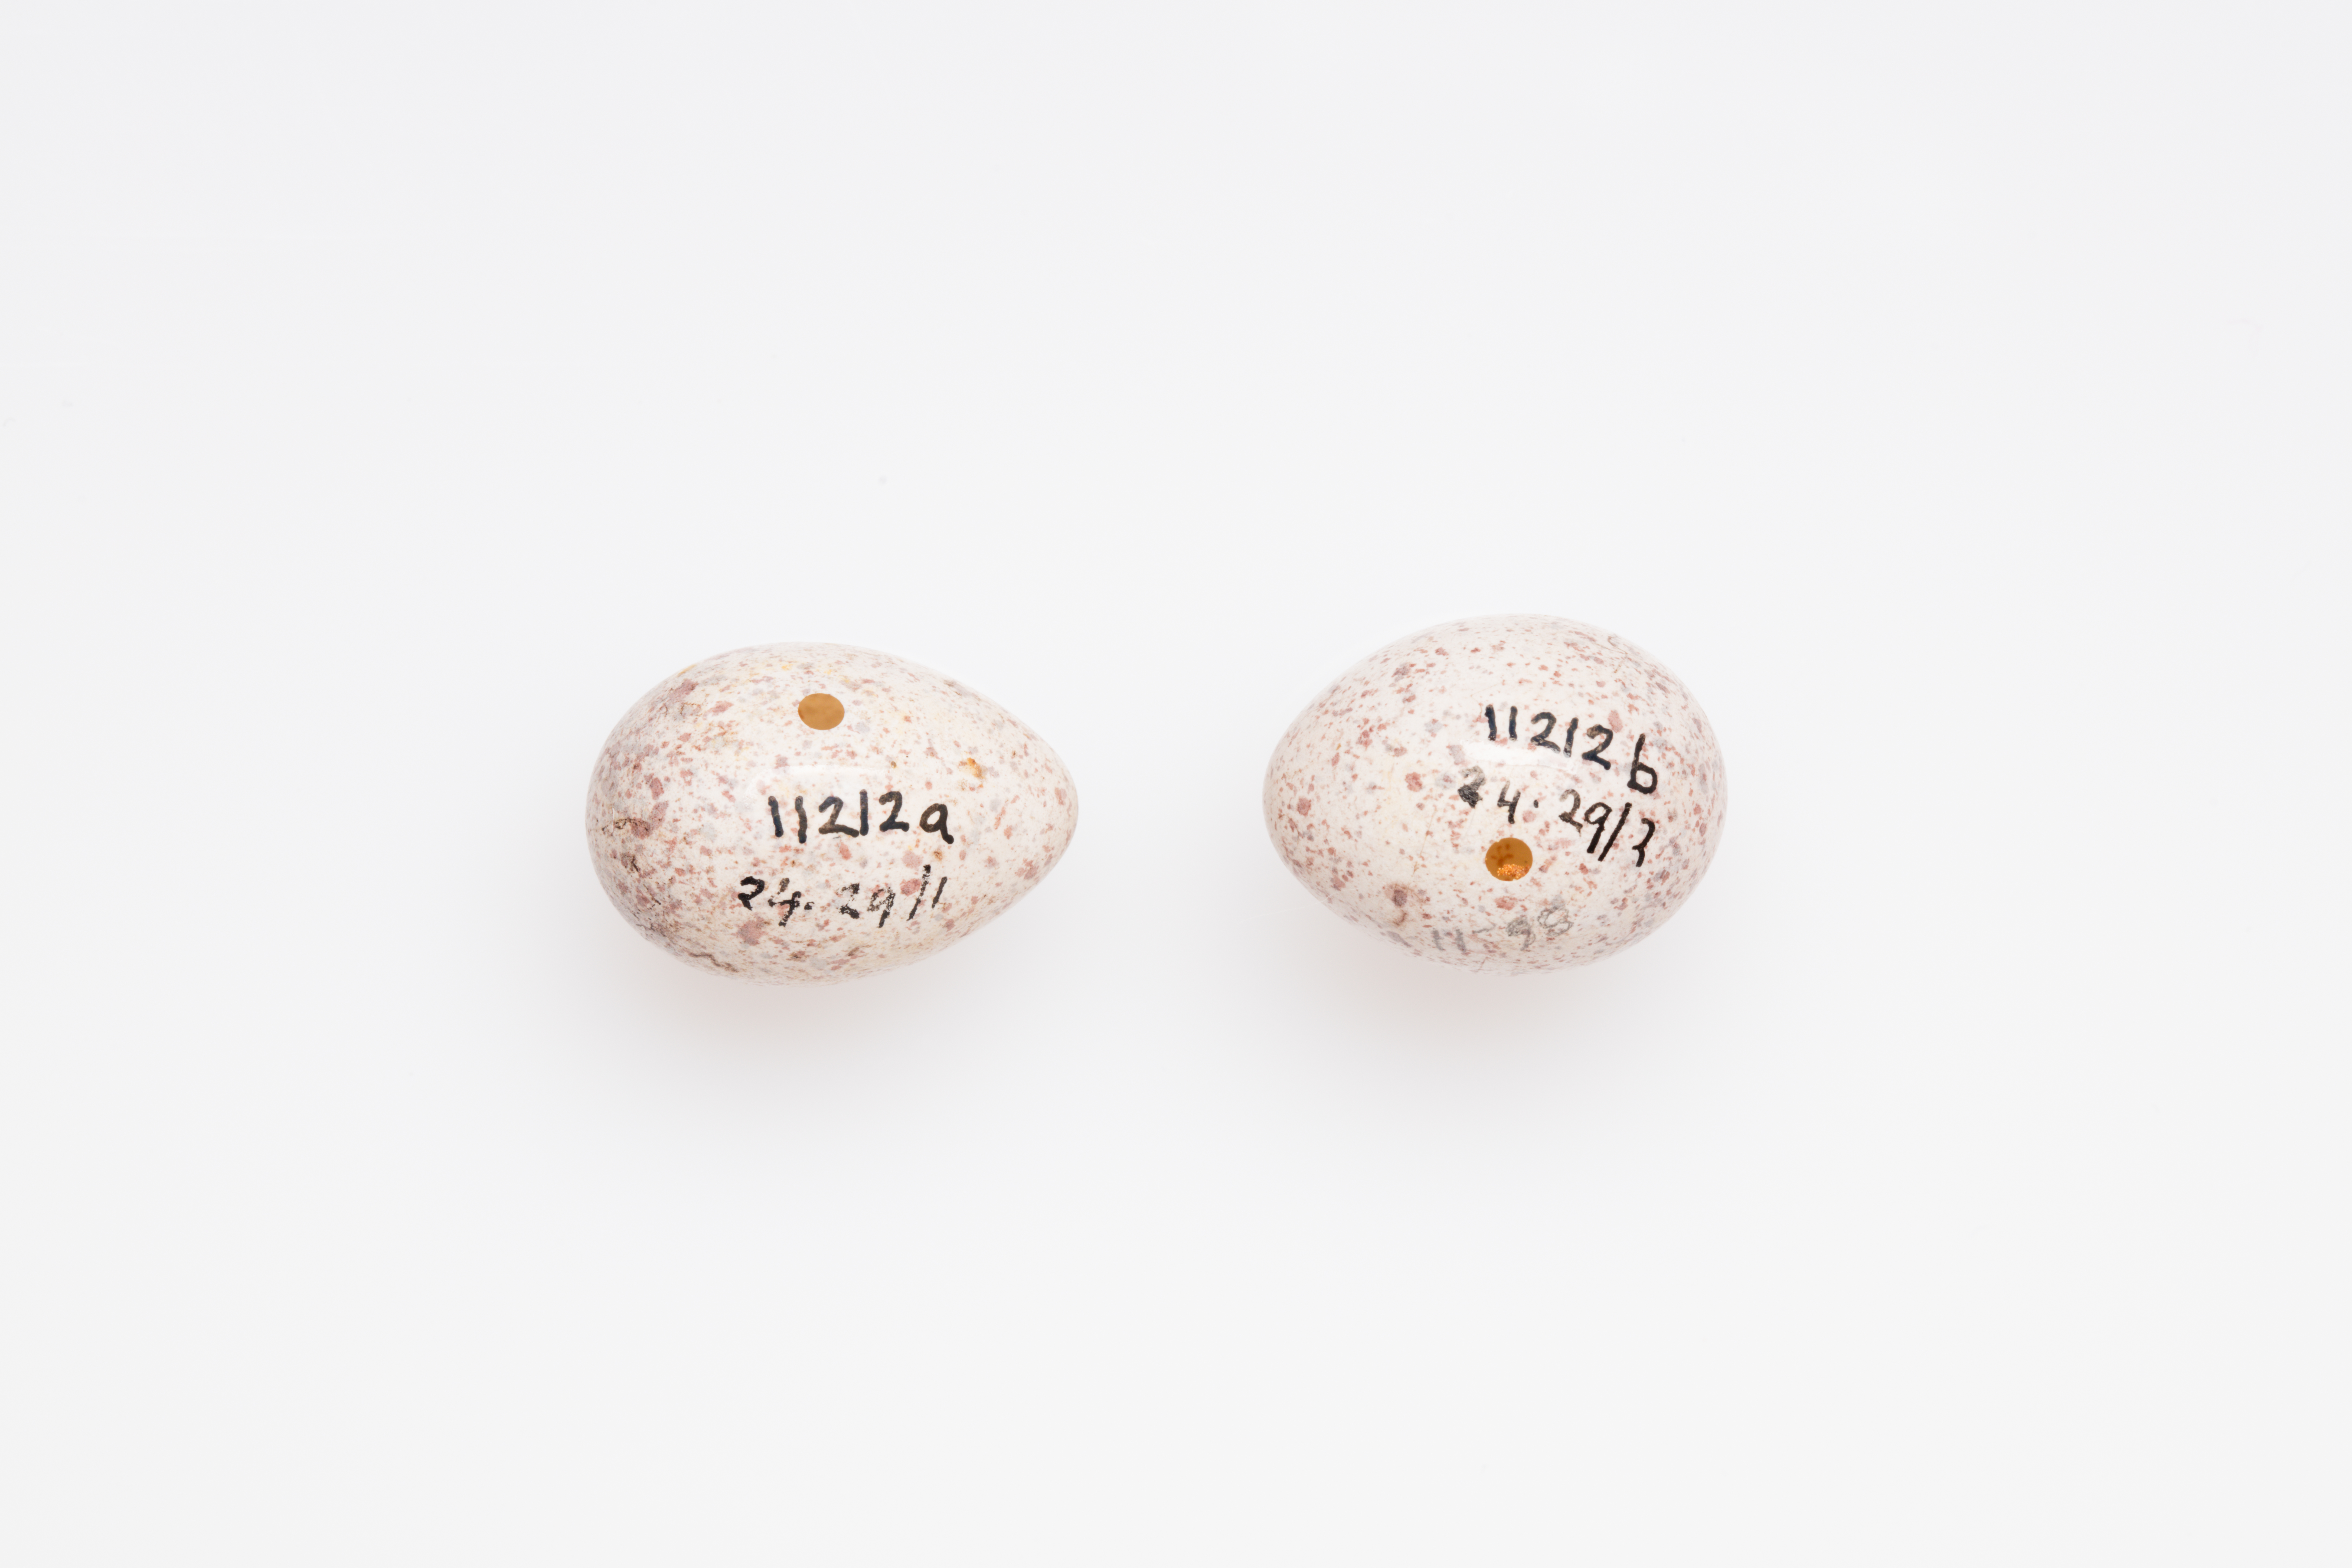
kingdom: Animalia
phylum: Chordata
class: Aves
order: Passeriformes
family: Locustellidae
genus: Megalurus
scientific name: Megalurus punctatus
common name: New zealand fernbird
